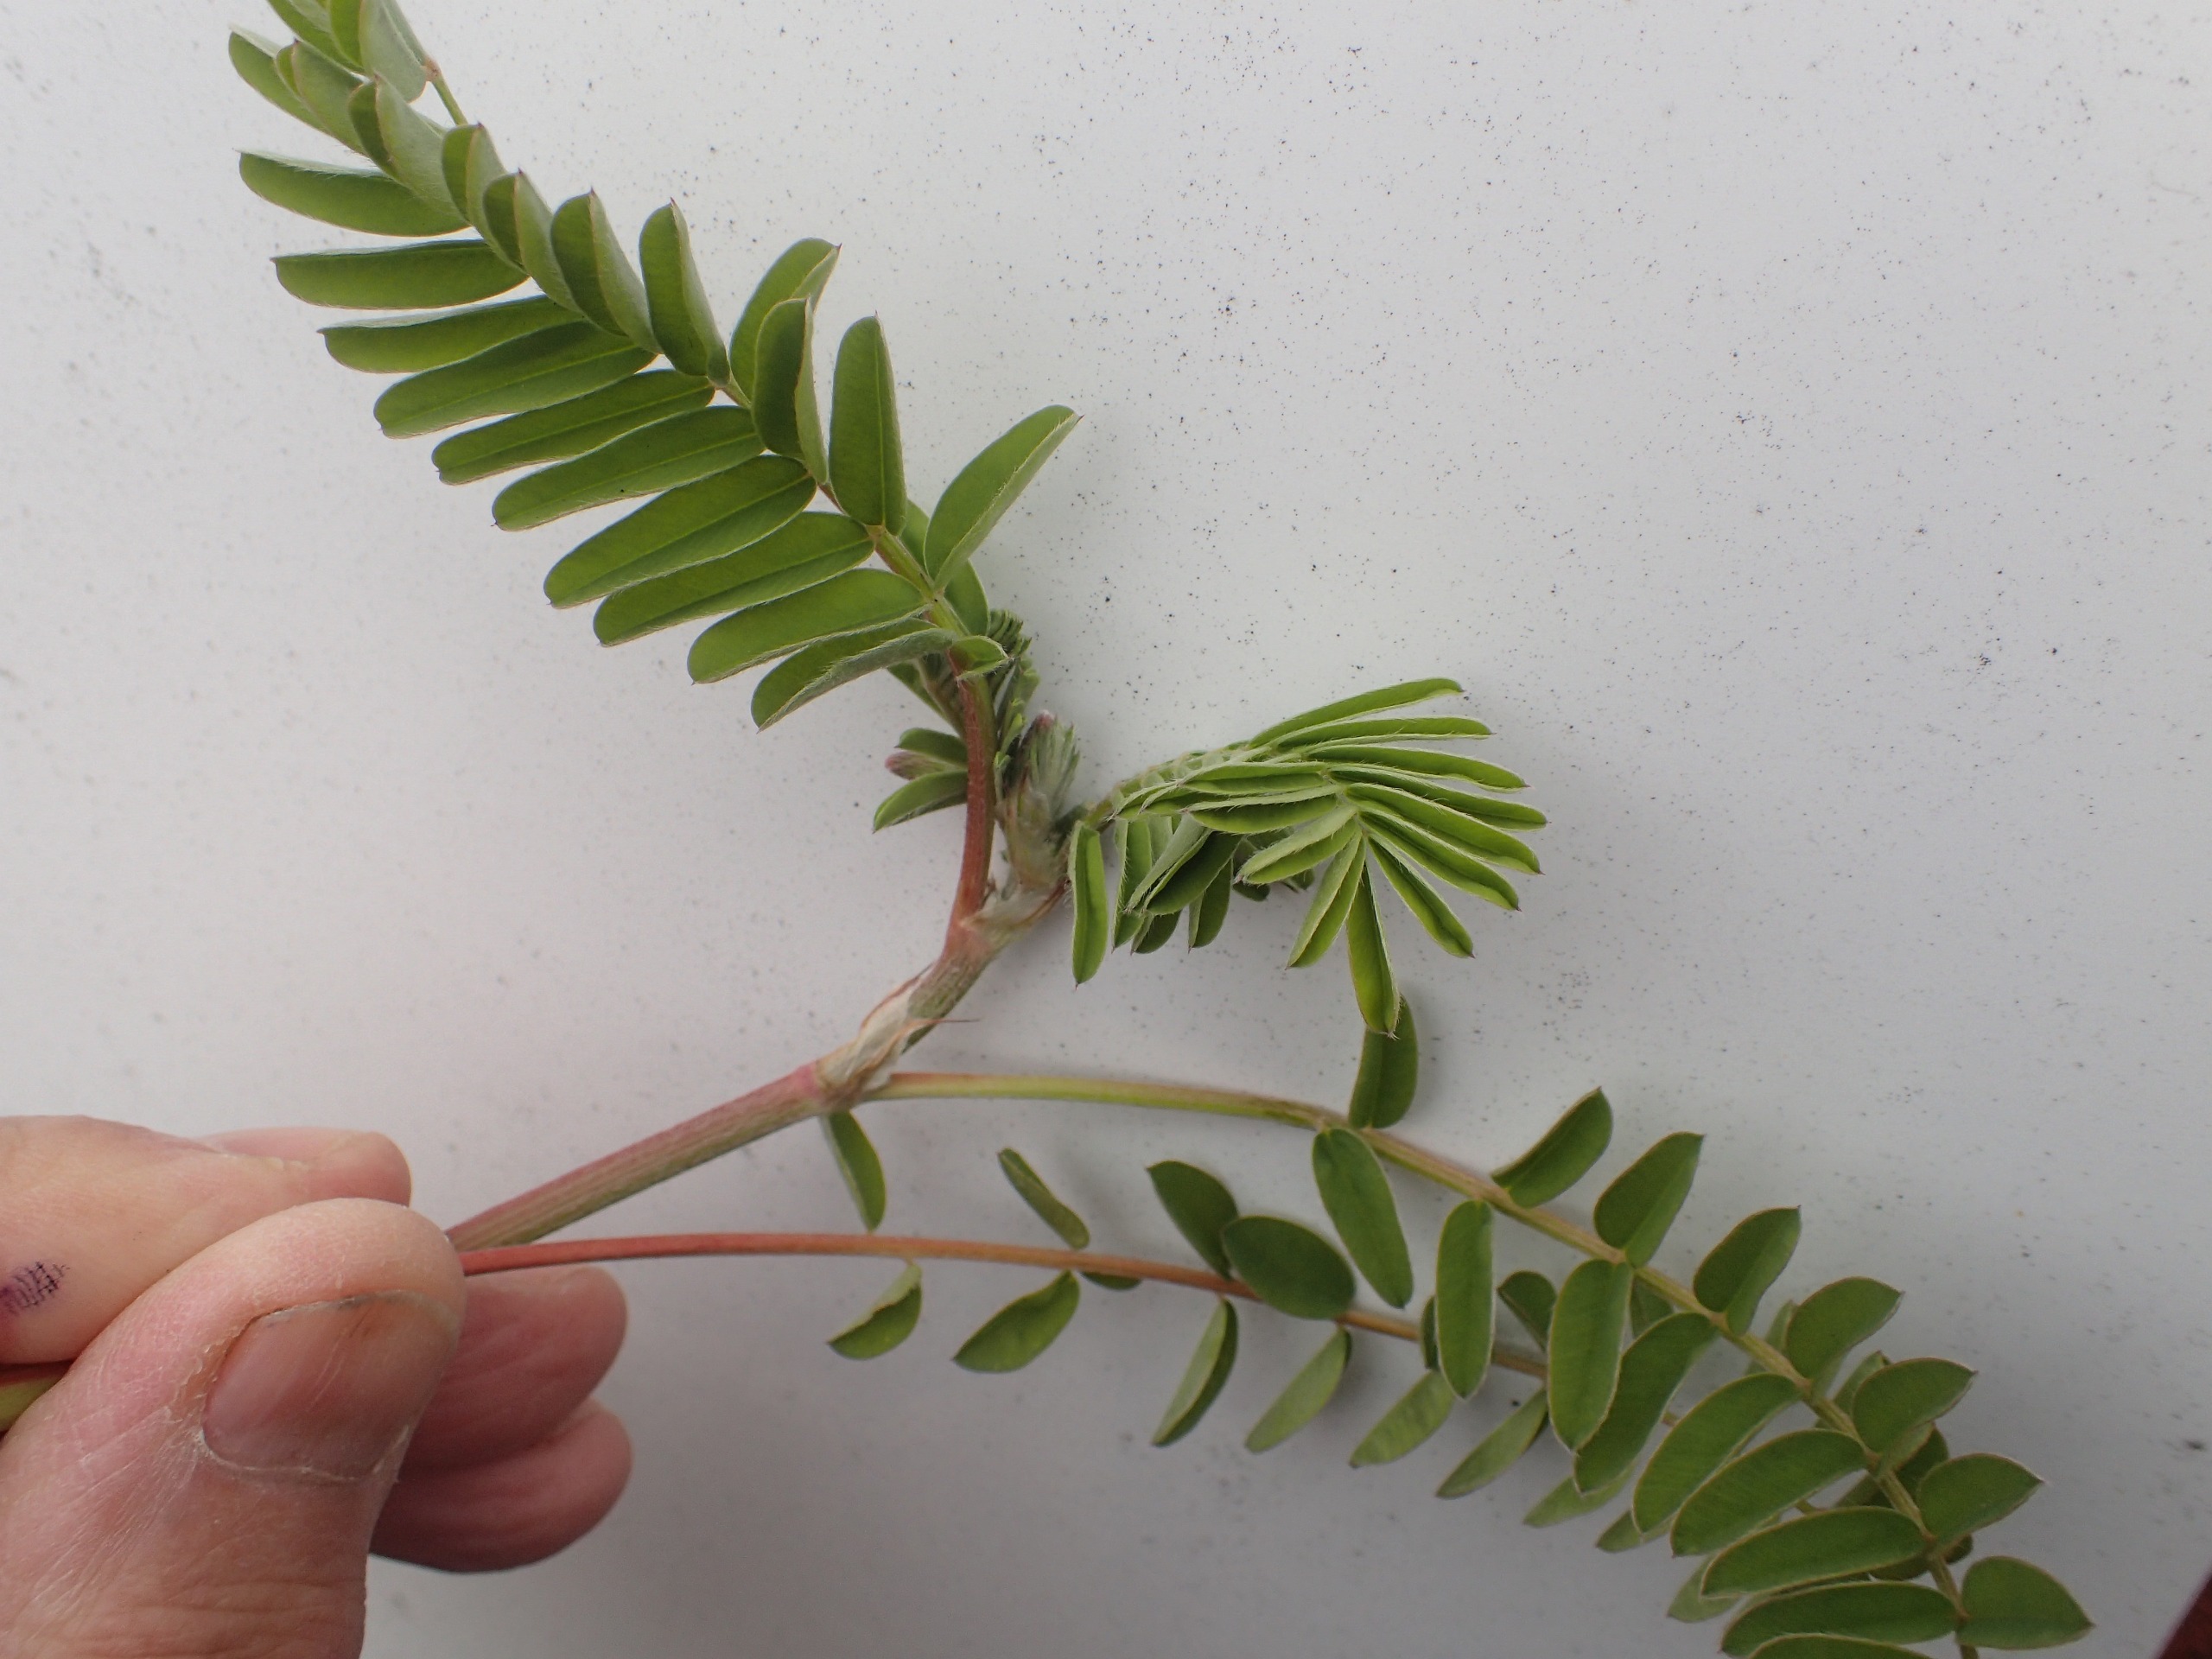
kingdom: Plantae
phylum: Tracheophyta
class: Magnoliopsida
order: Fabales
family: Fabaceae
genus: Onobrychis
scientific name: Onobrychis viciifolia
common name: Esparsette
